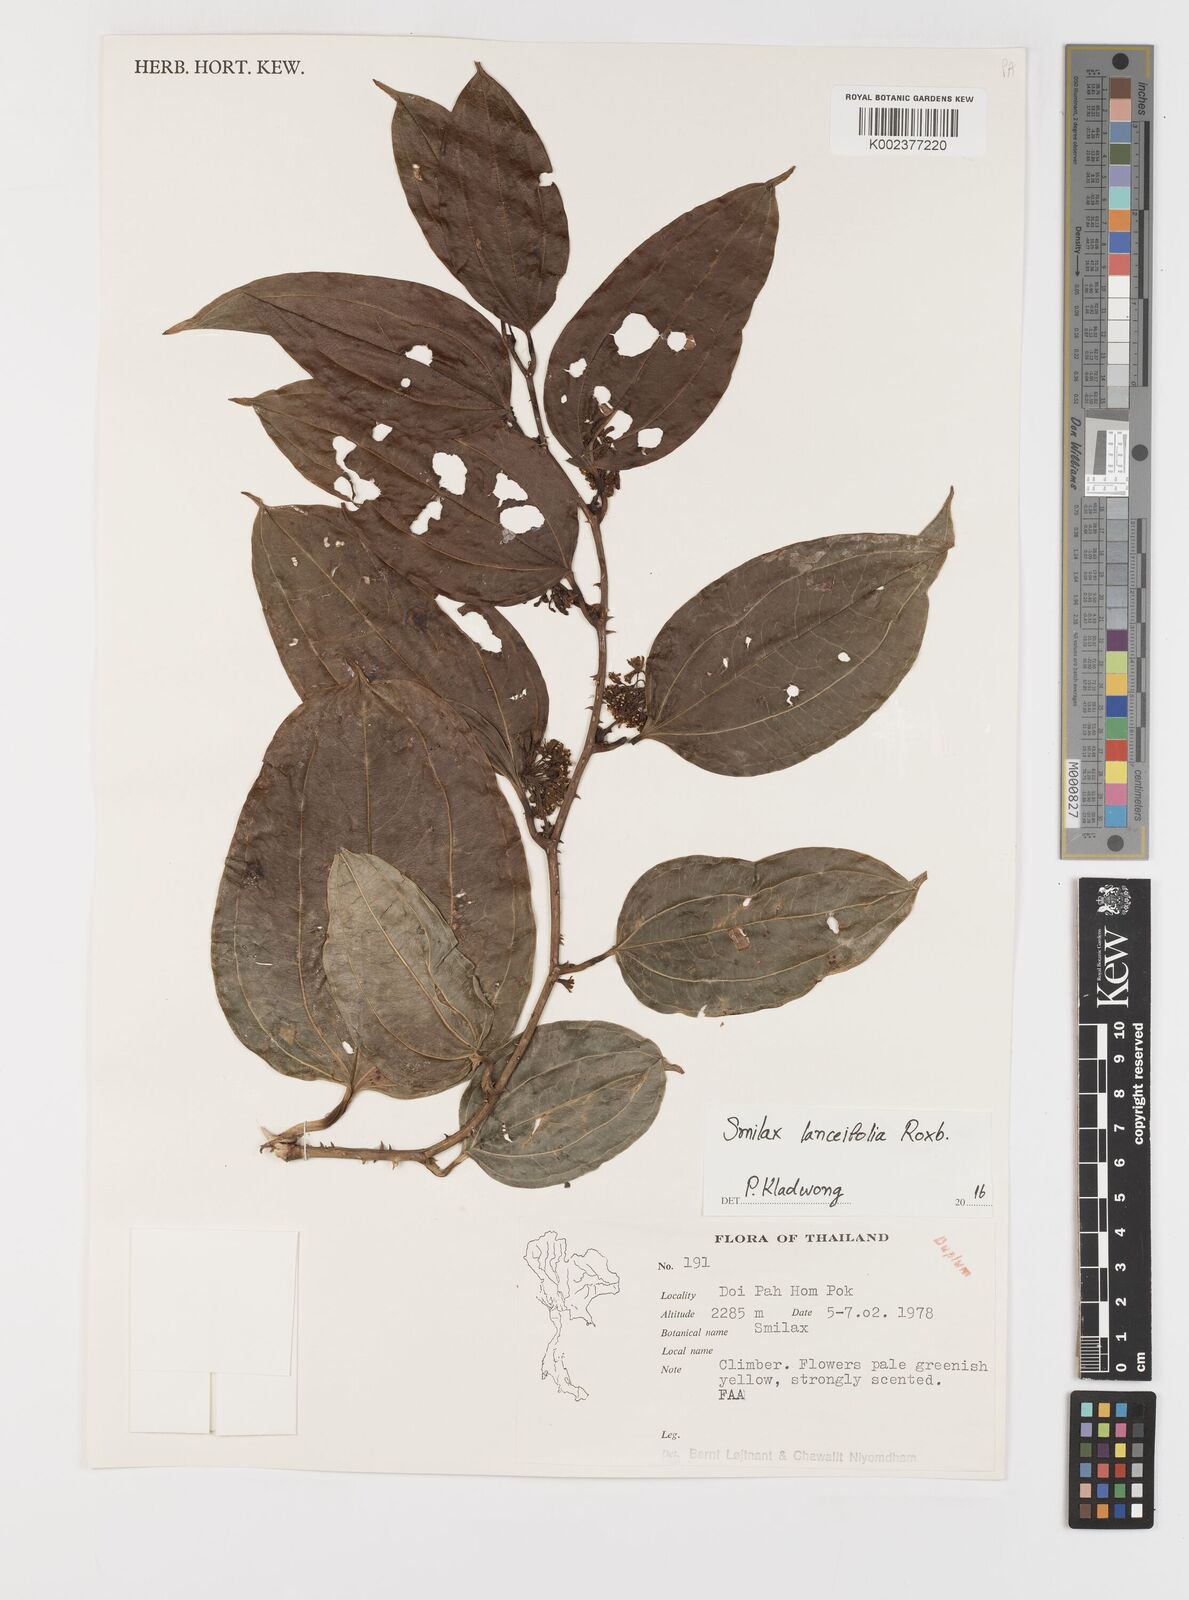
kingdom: Plantae
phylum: Tracheophyta
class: Liliopsida
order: Liliales
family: Smilacaceae
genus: Smilax
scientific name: Smilax lanceifolia
